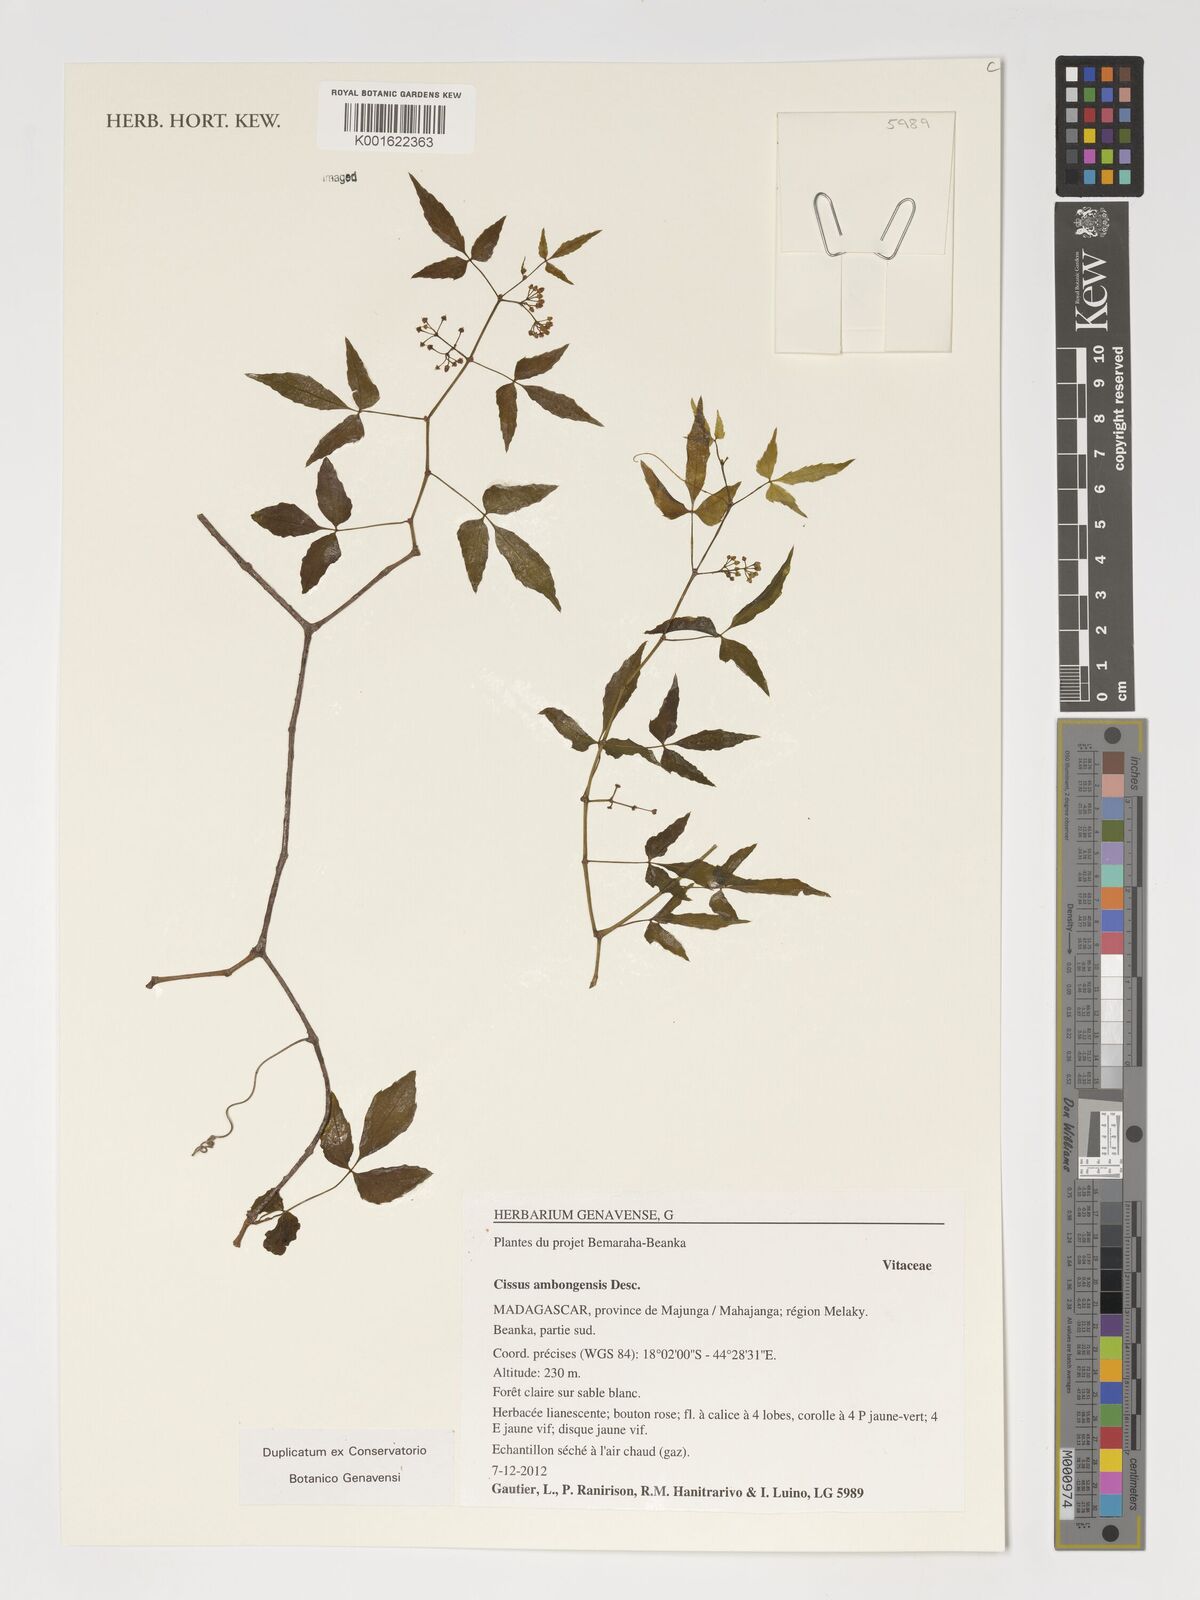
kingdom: Plantae
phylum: Tracheophyta
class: Magnoliopsida
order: Vitales
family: Vitaceae
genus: Cissus
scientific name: Cissus ambongensis
